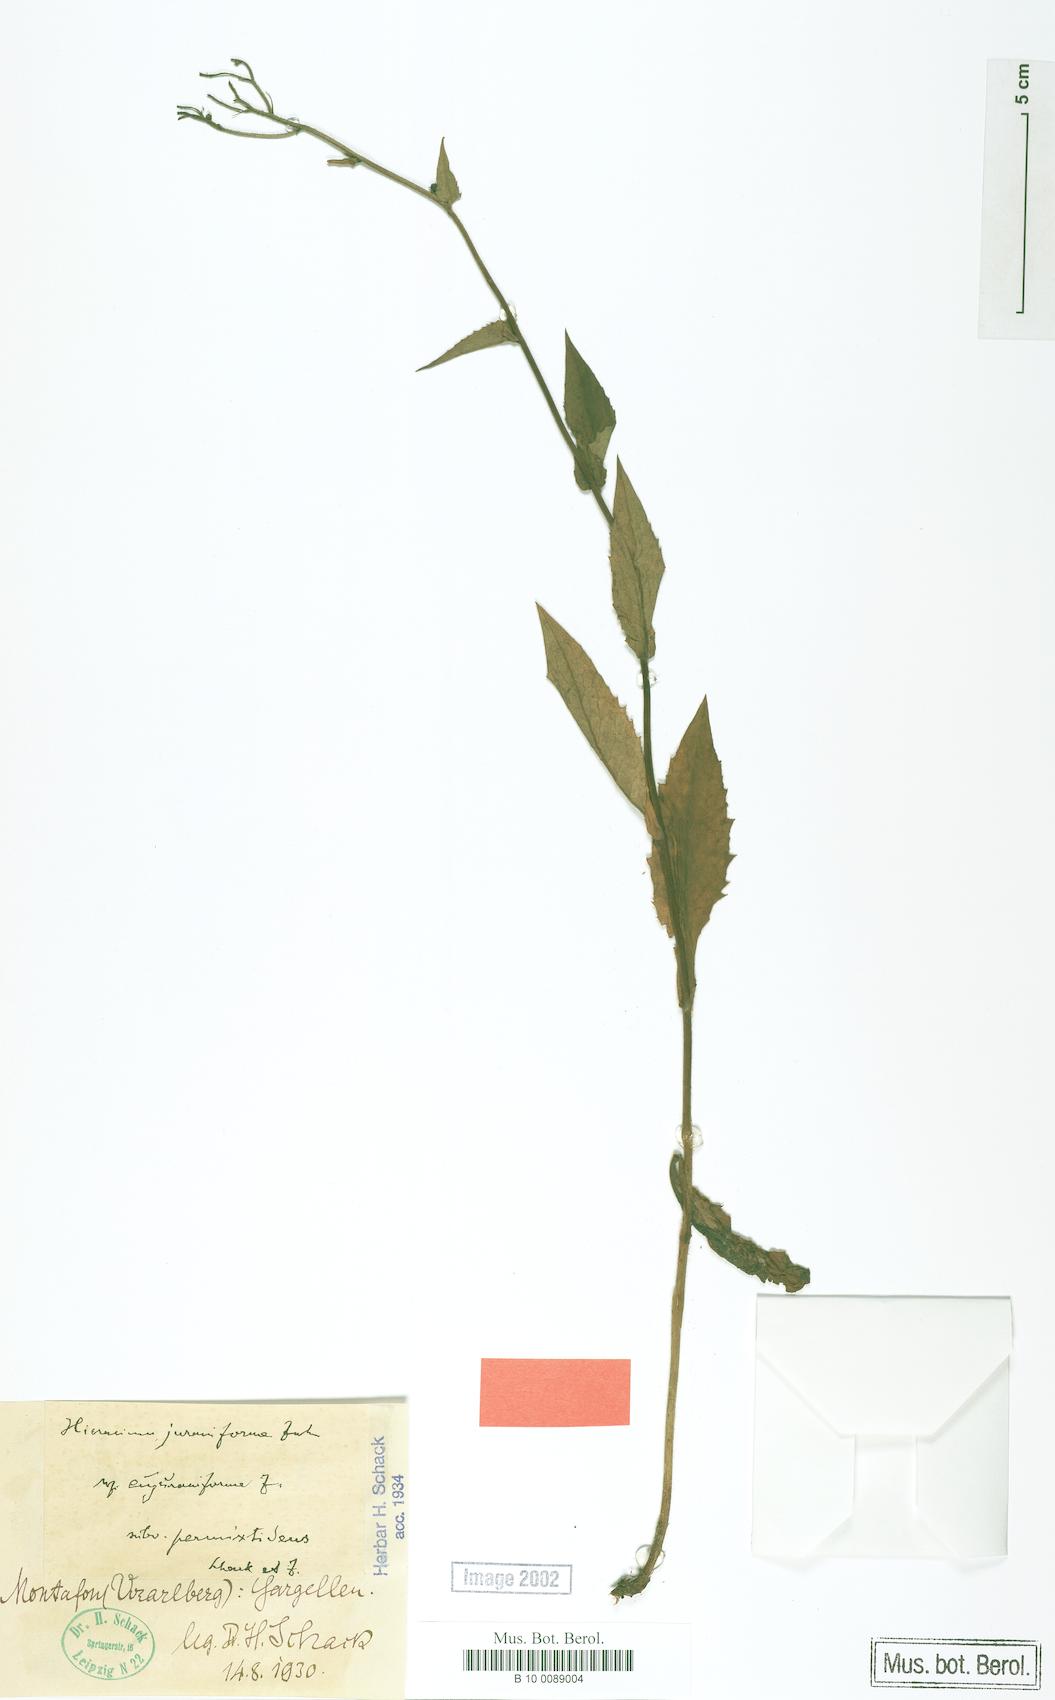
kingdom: Plantae
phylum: Tracheophyta
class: Magnoliopsida
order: Asterales
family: Asteraceae
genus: Hieracium
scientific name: Hieracium dermophyllum
